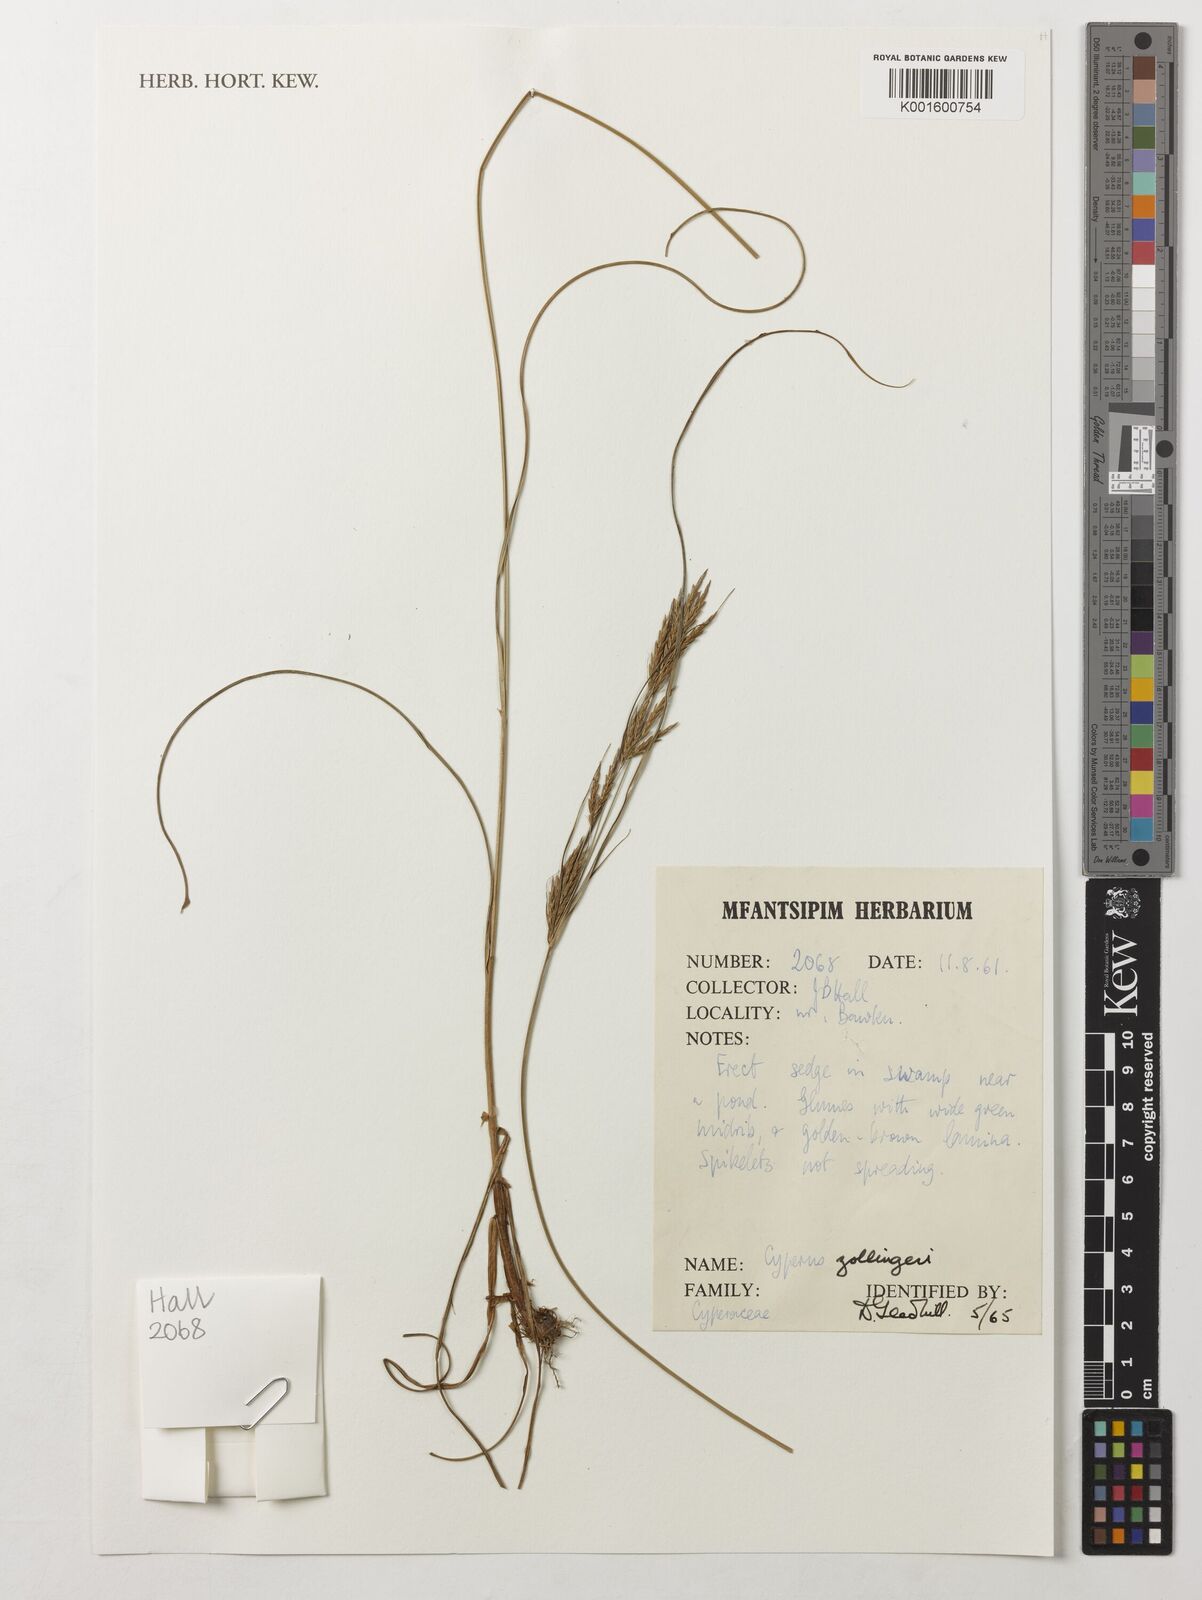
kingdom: Plantae
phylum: Tracheophyta
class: Liliopsida
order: Poales
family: Cyperaceae
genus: Cyperus
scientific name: Cyperus zollingeri
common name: Roadside flatsedge
